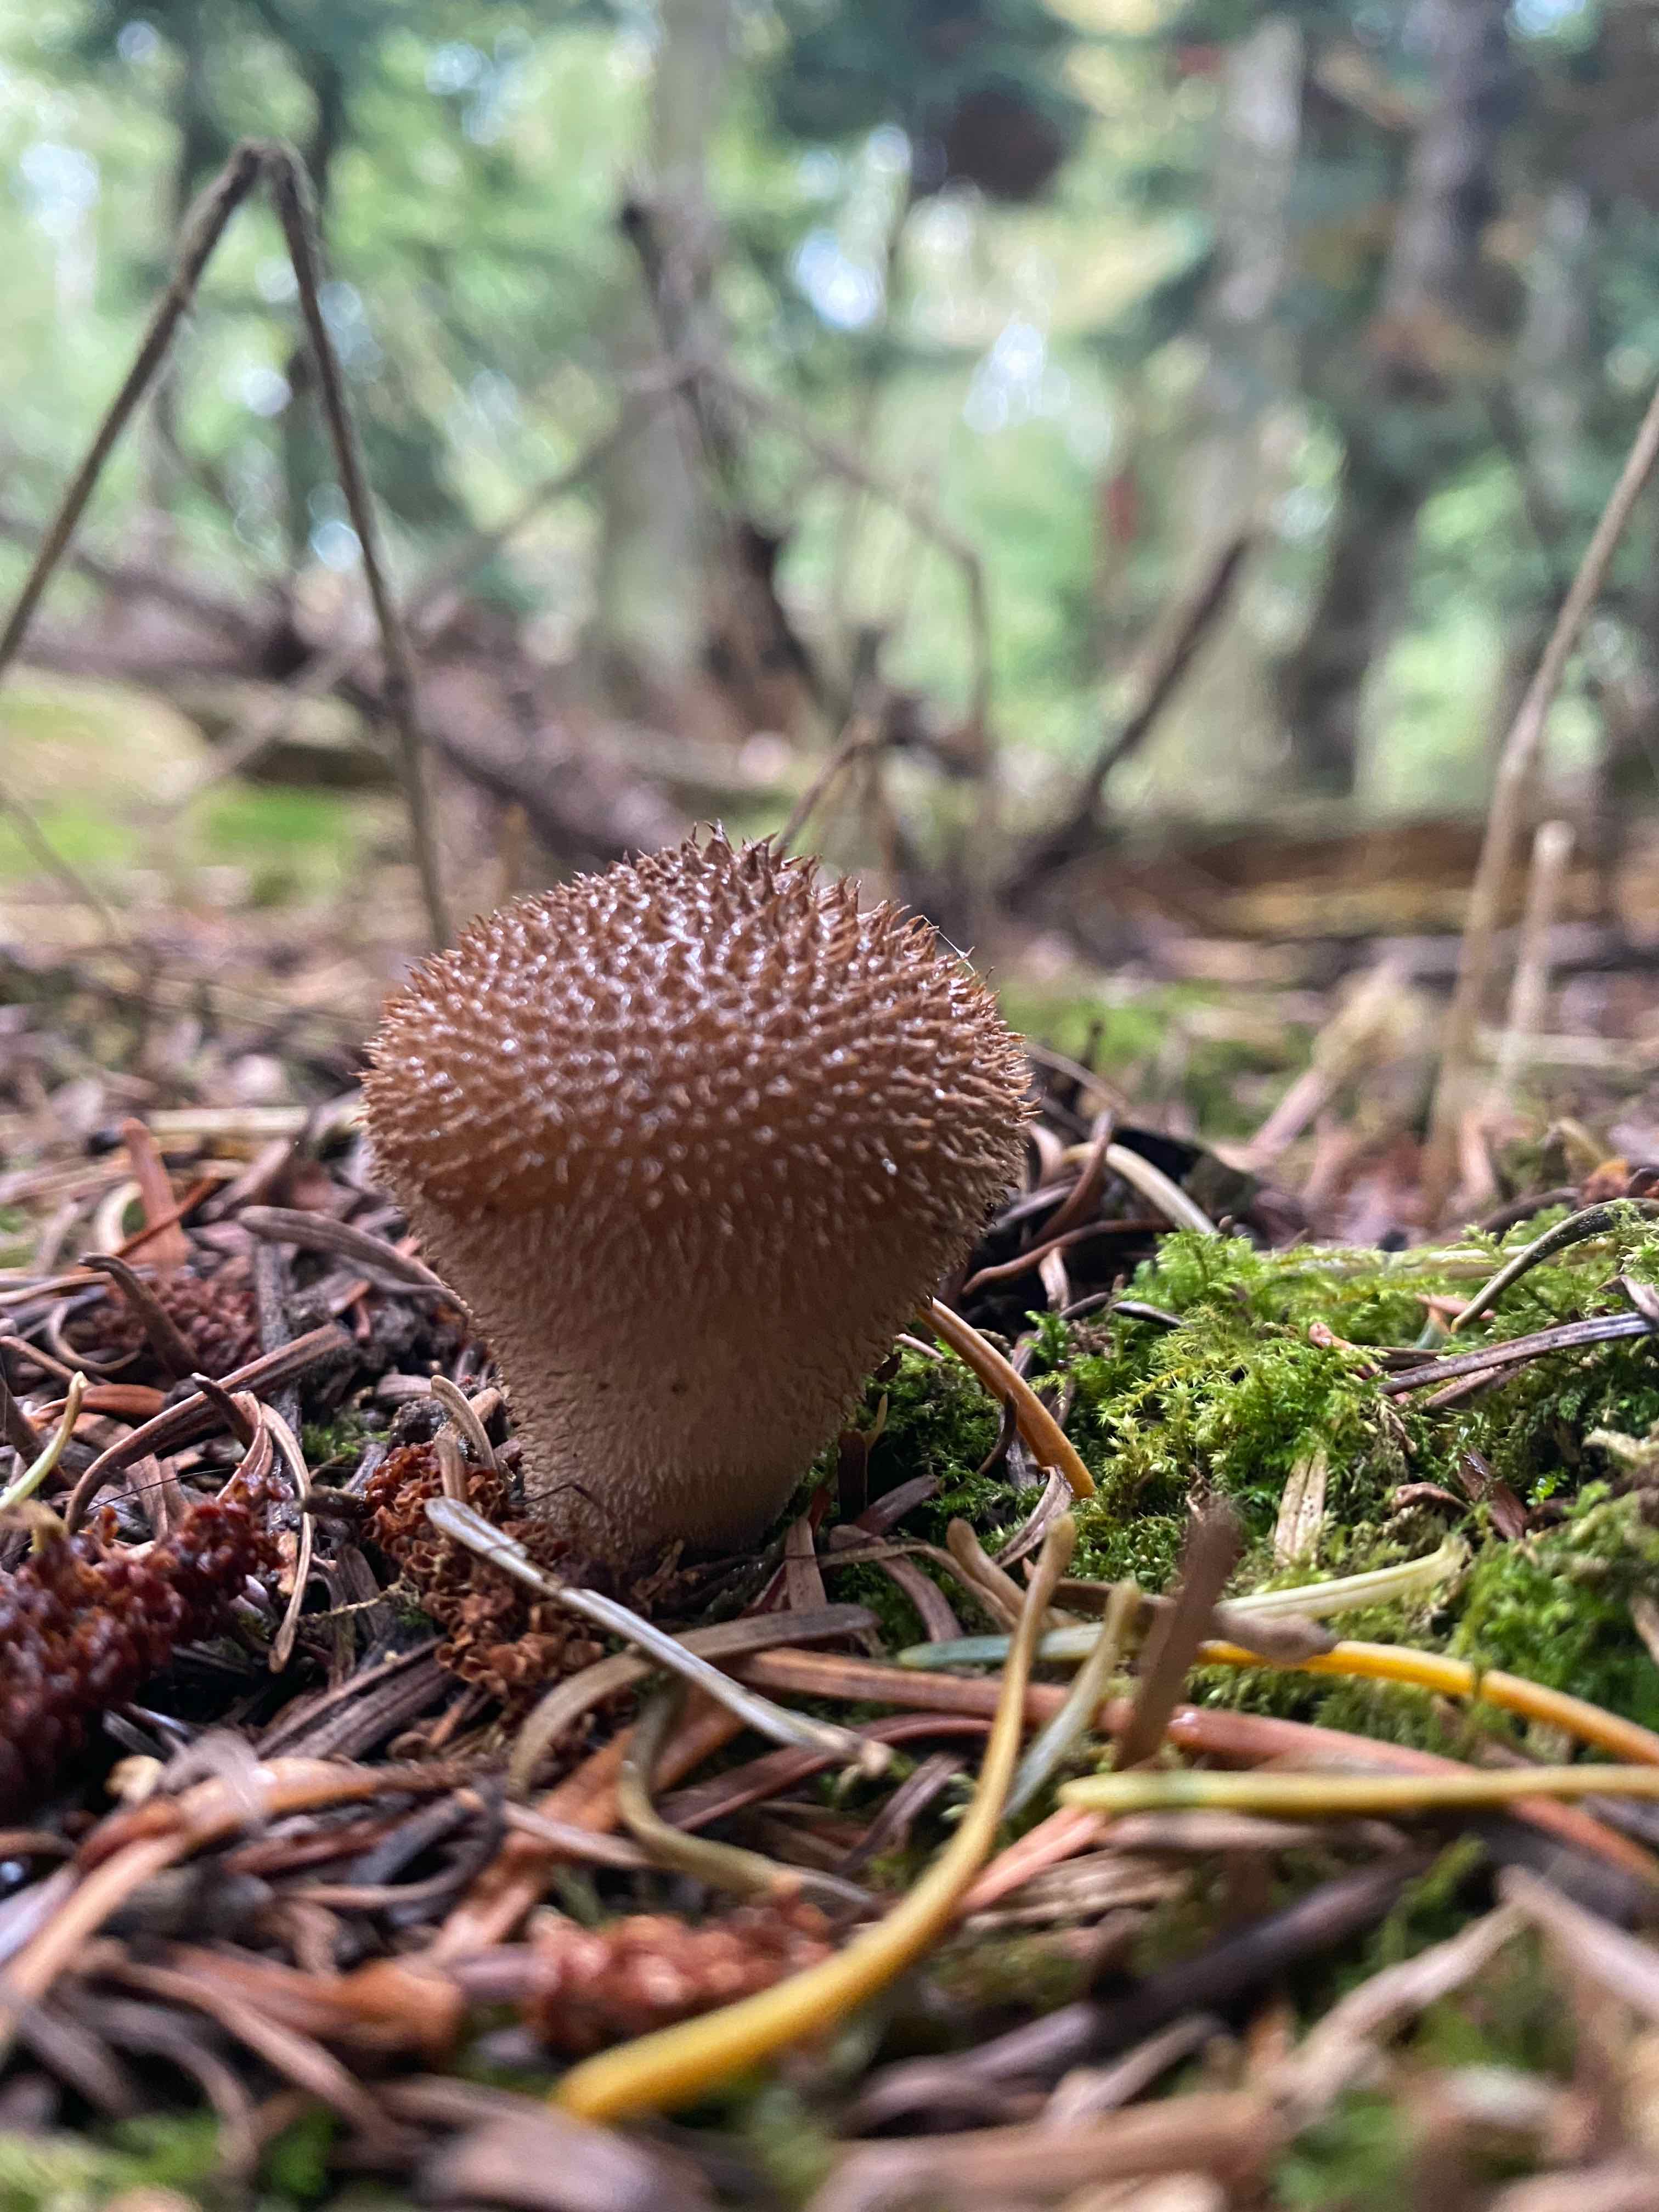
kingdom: Fungi
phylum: Basidiomycota
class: Agaricomycetes
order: Agaricales
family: Agaricaceae
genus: Lycoperdon
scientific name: Lycoperdon
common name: støvbold
